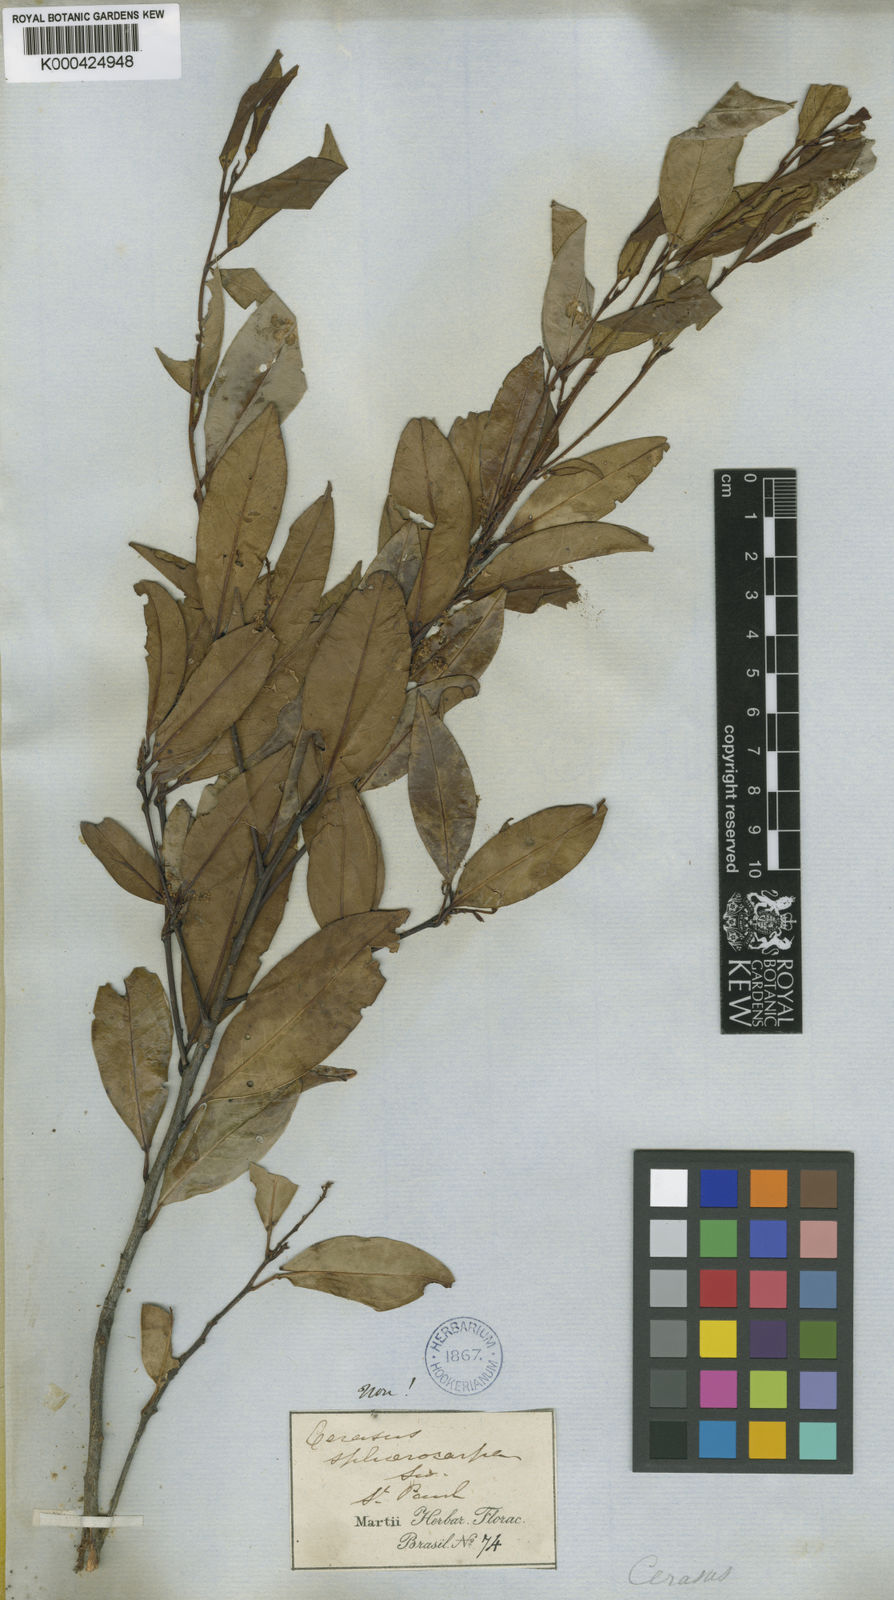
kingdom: Plantae
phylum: Tracheophyta
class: Magnoliopsida
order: Rosales
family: Rosaceae
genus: Prunus
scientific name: Prunus reflexa
